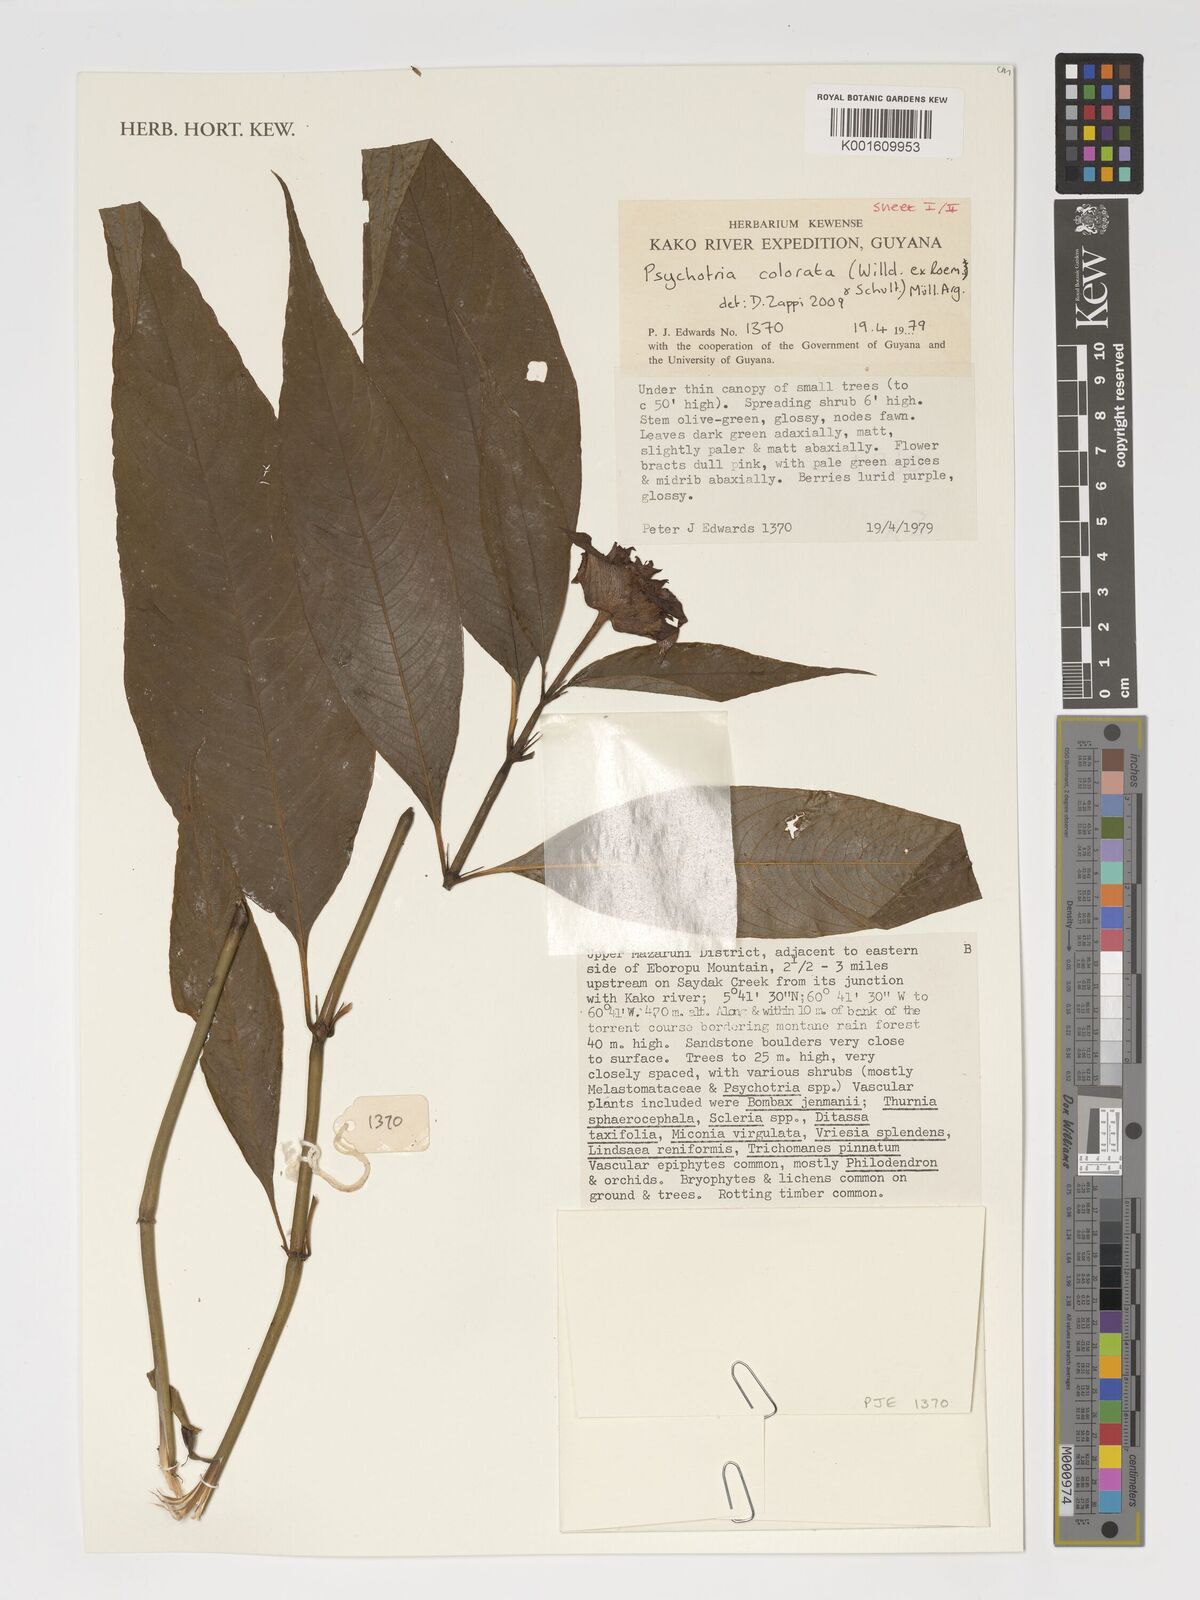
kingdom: Plantae
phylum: Tracheophyta
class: Magnoliopsida
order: Gentianales
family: Rubiaceae
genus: Palicourea
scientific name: Palicourea colorata
